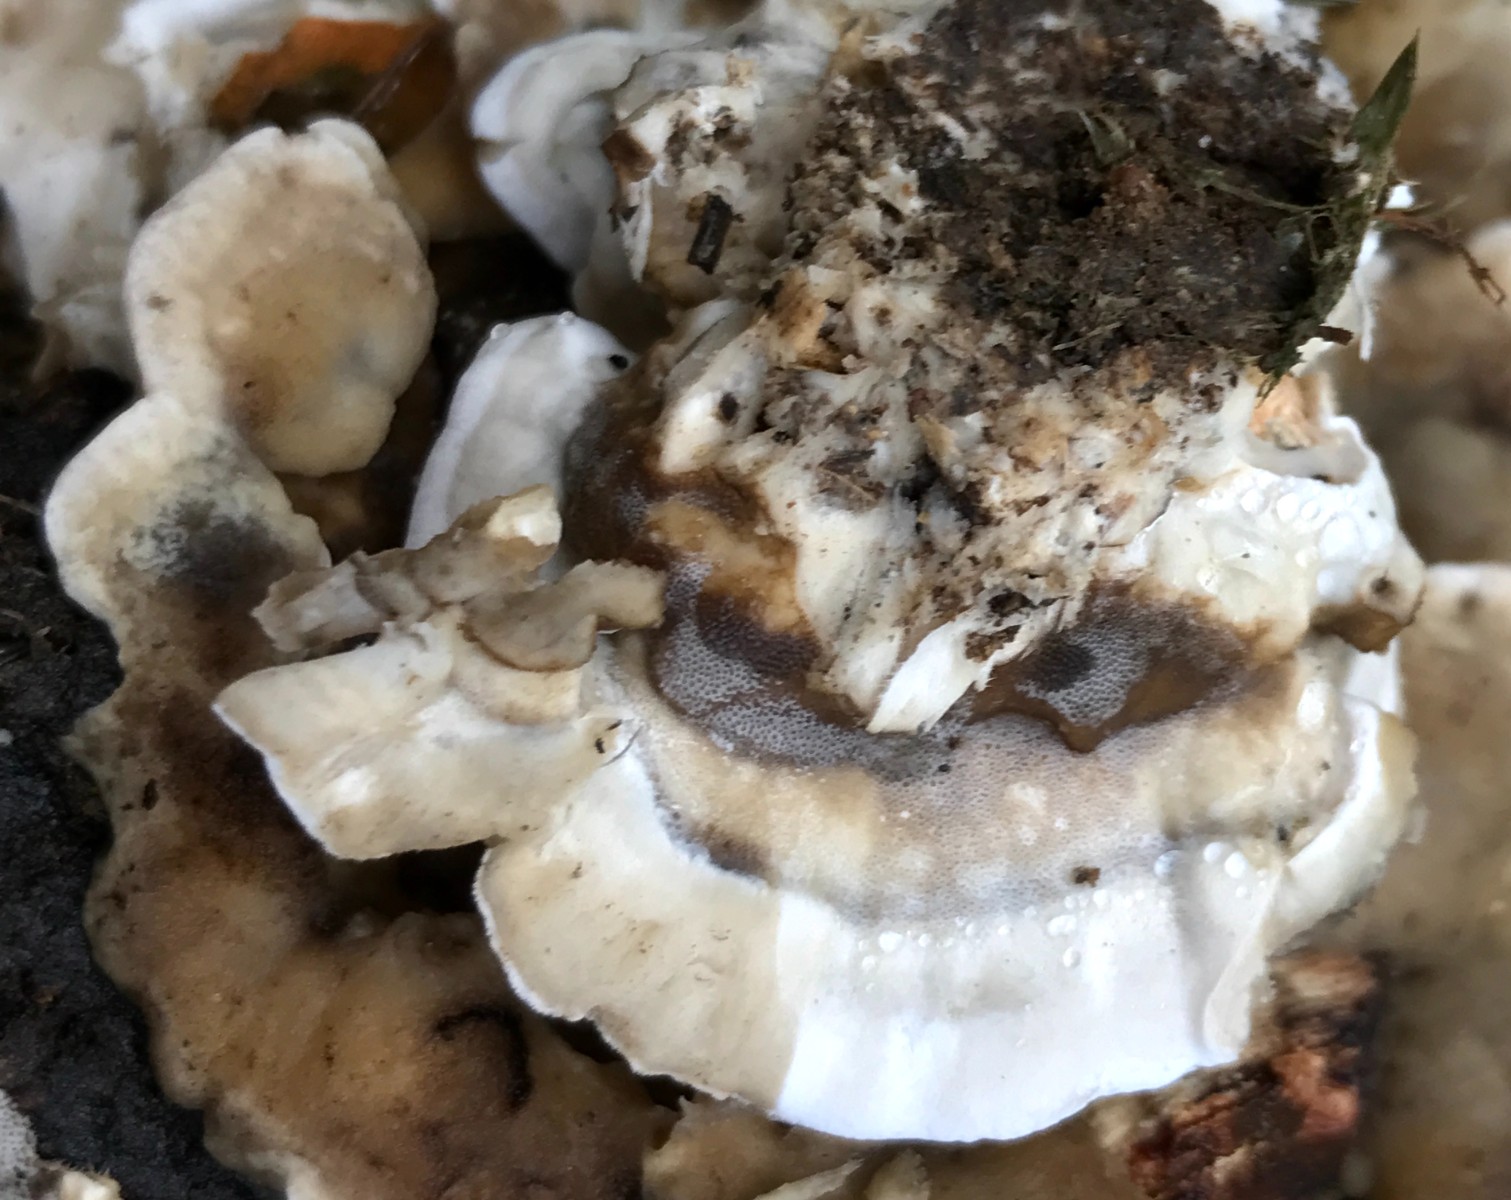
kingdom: Fungi
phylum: Basidiomycota
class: Agaricomycetes
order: Polyporales
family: Phanerochaetaceae
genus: Bjerkandera
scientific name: Bjerkandera fumosa
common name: grågul sodporesvamp
